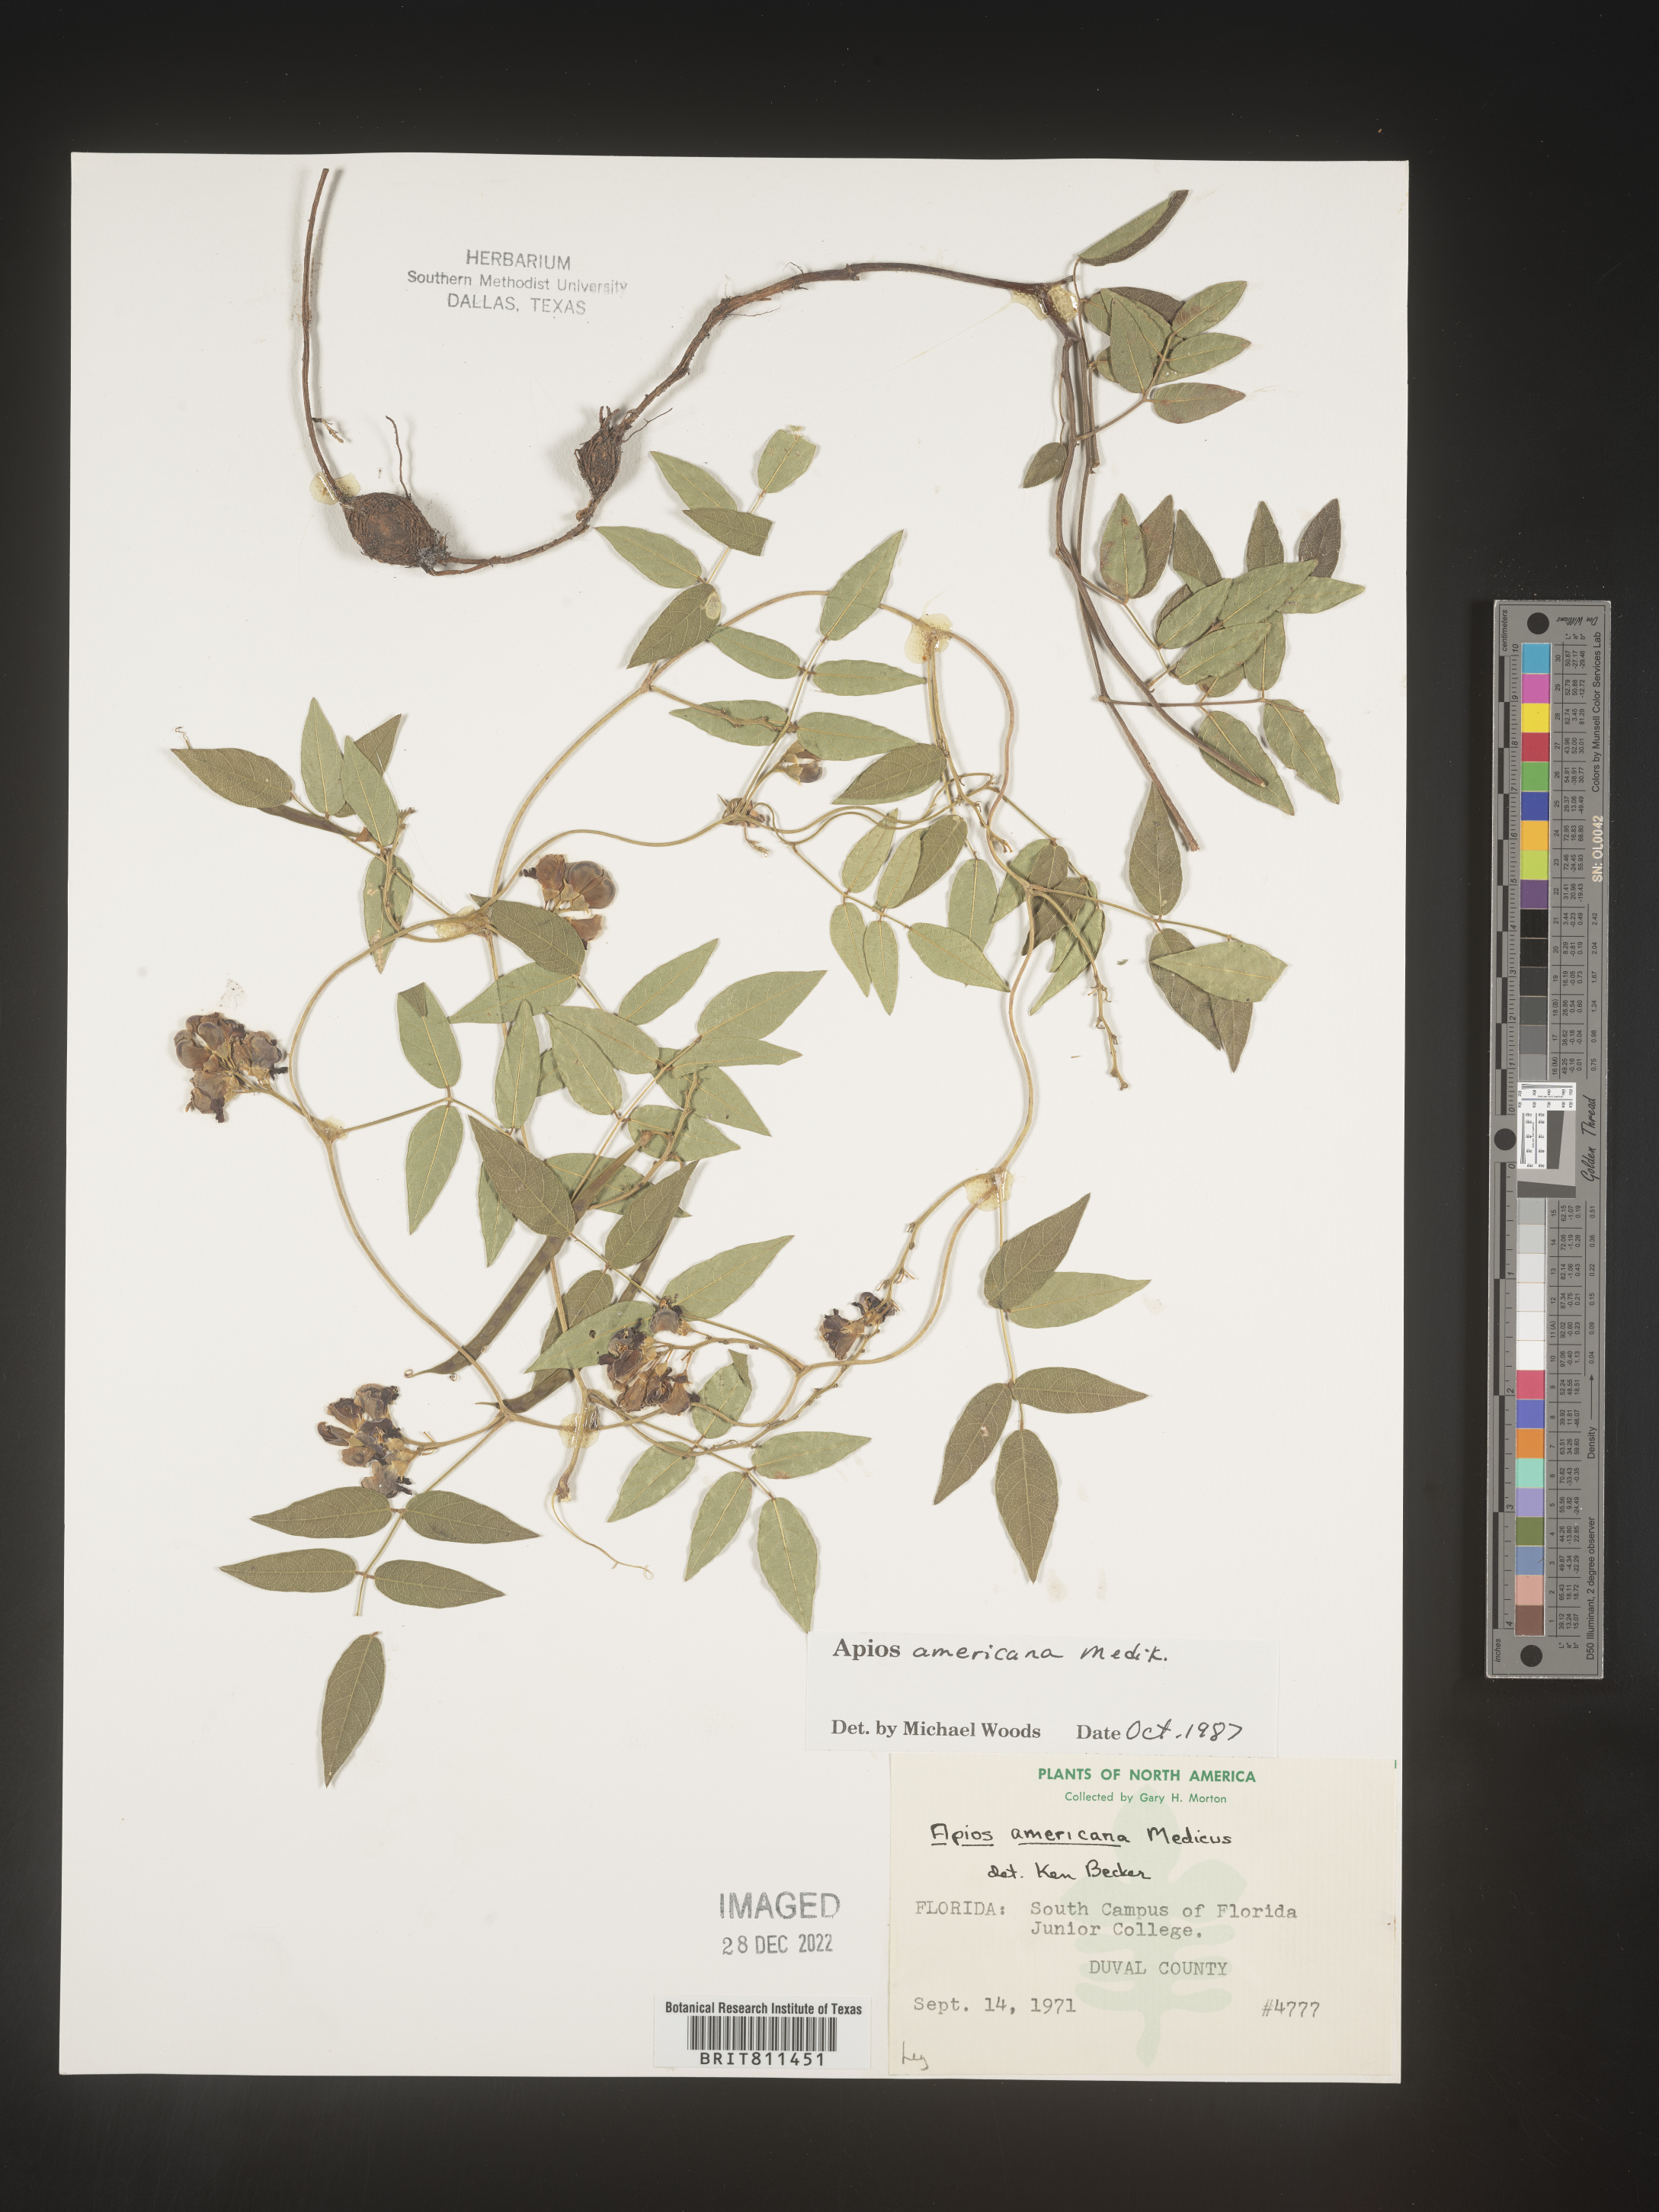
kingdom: Plantae
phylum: Tracheophyta
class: Magnoliopsida
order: Fabales
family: Fabaceae
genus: Apios
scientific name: Apios americana
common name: American potato-bean
